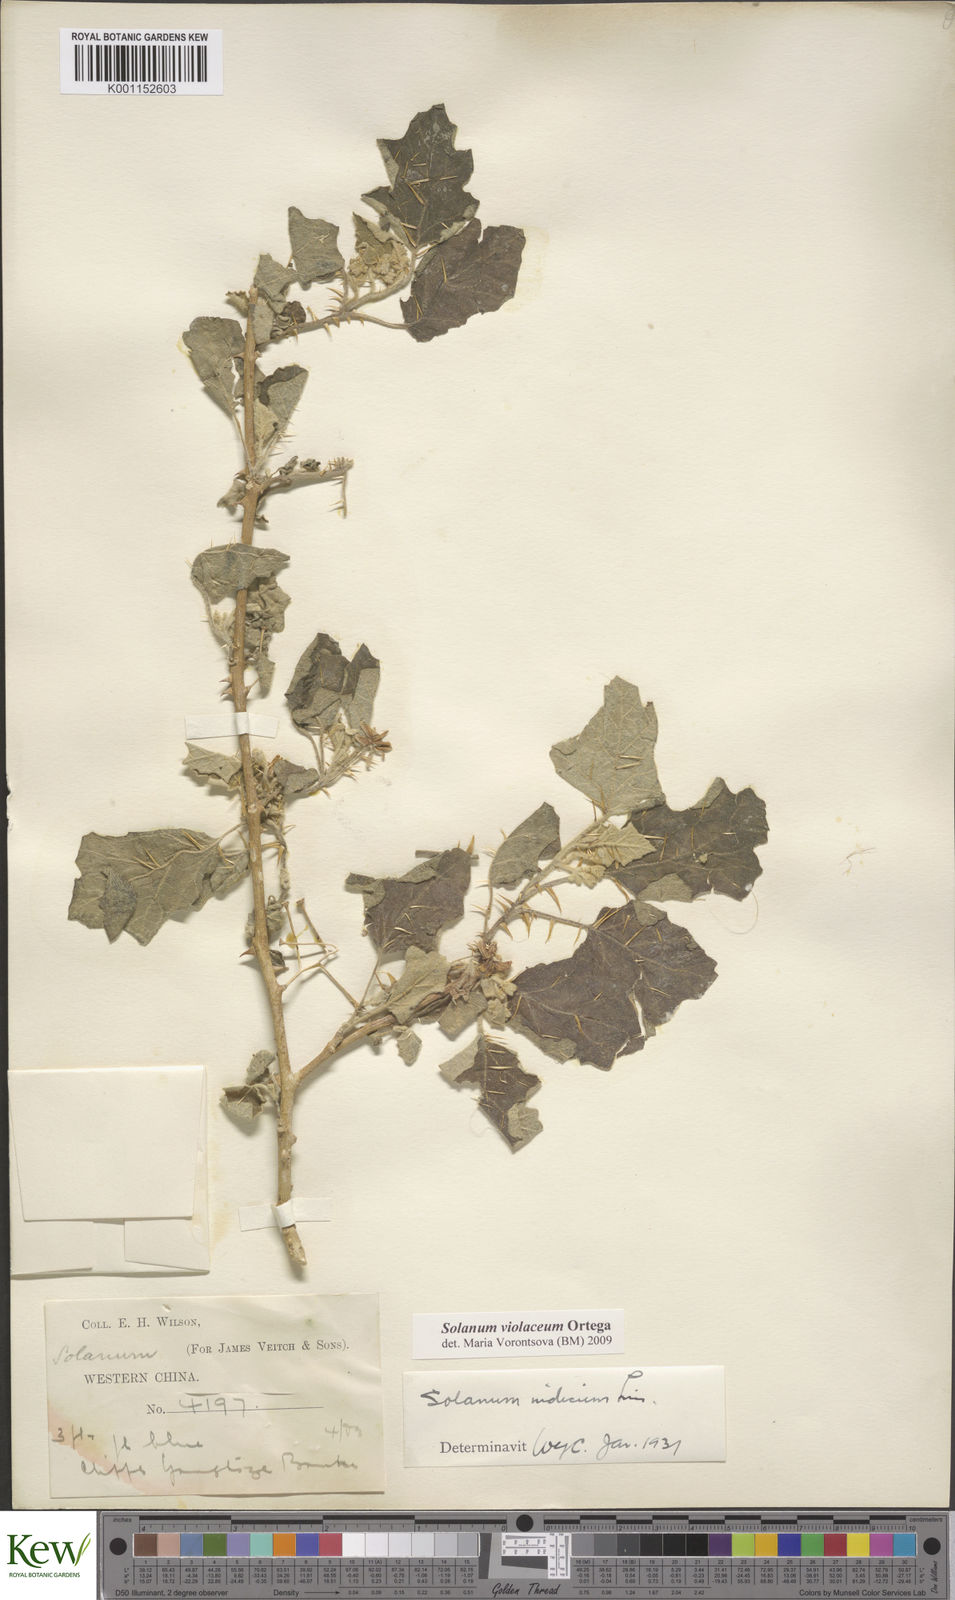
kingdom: Plantae
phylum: Tracheophyta
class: Magnoliopsida
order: Solanales
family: Solanaceae
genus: Solanum
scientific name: Solanum violaceum
